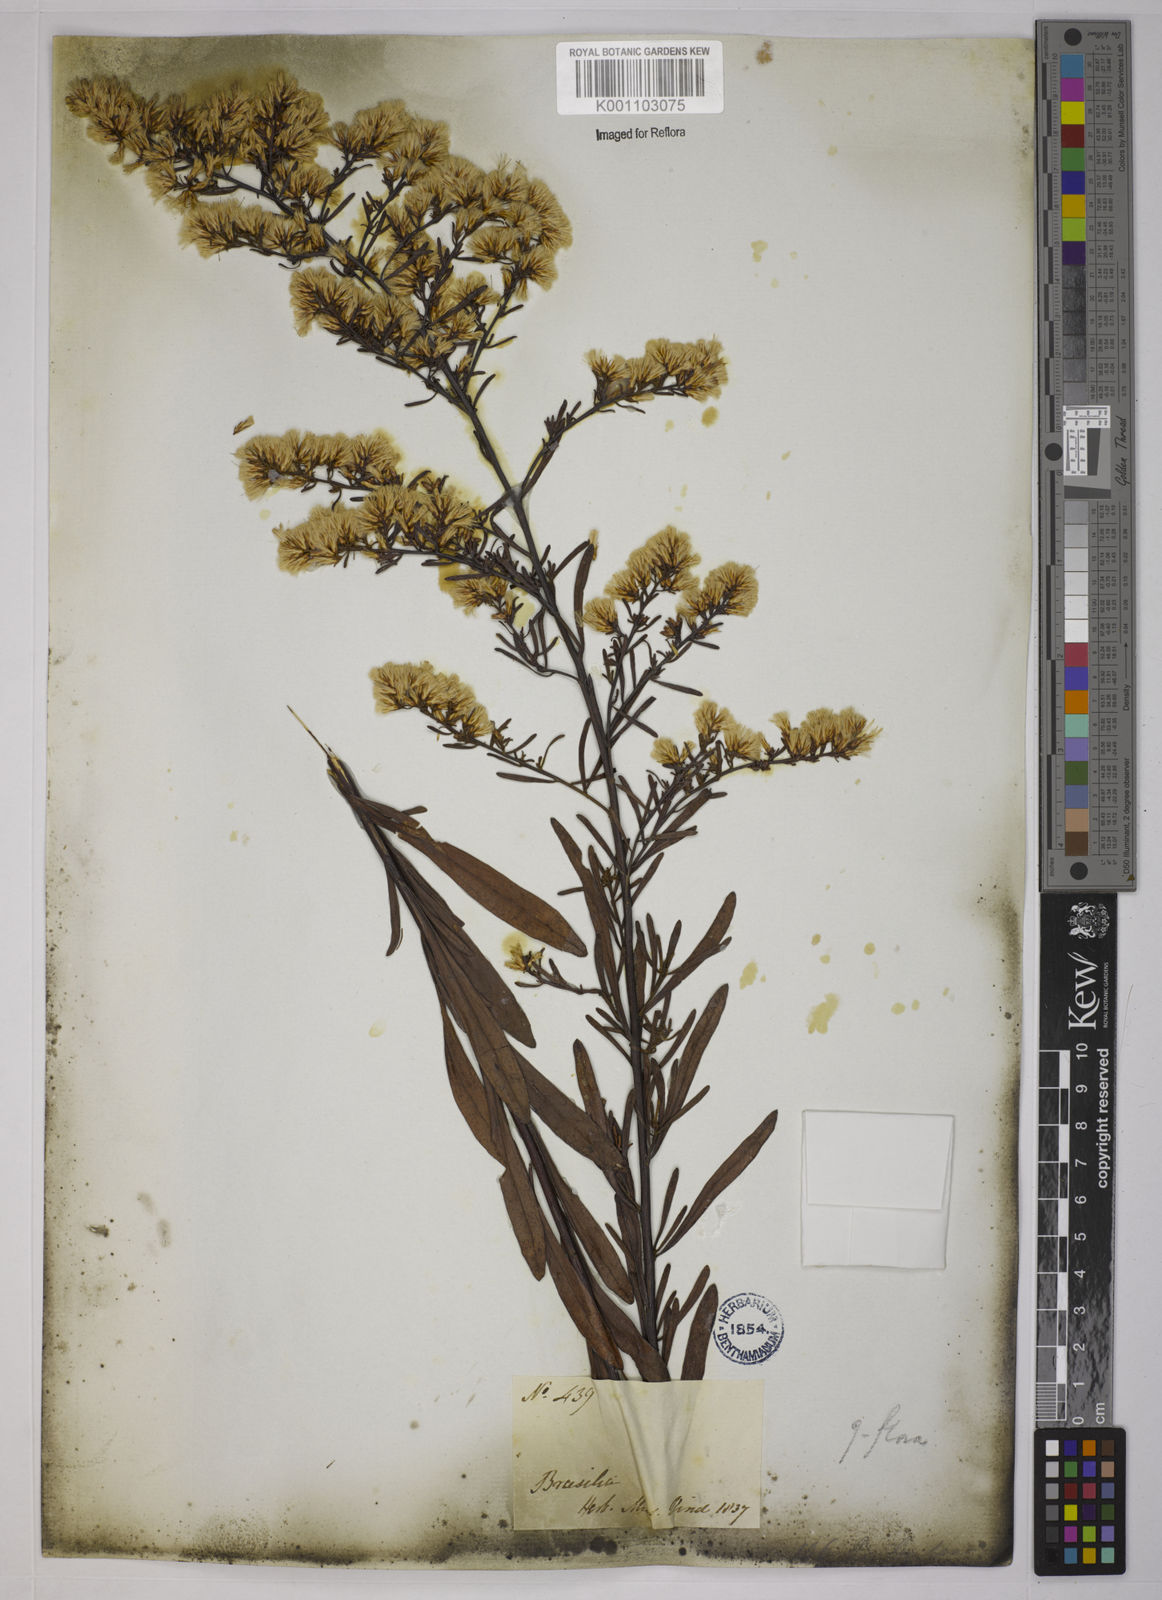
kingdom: Plantae
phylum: Tracheophyta
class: Magnoliopsida
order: Asterales
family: Asteraceae
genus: Baccharis
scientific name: Baccharis leptocephala
